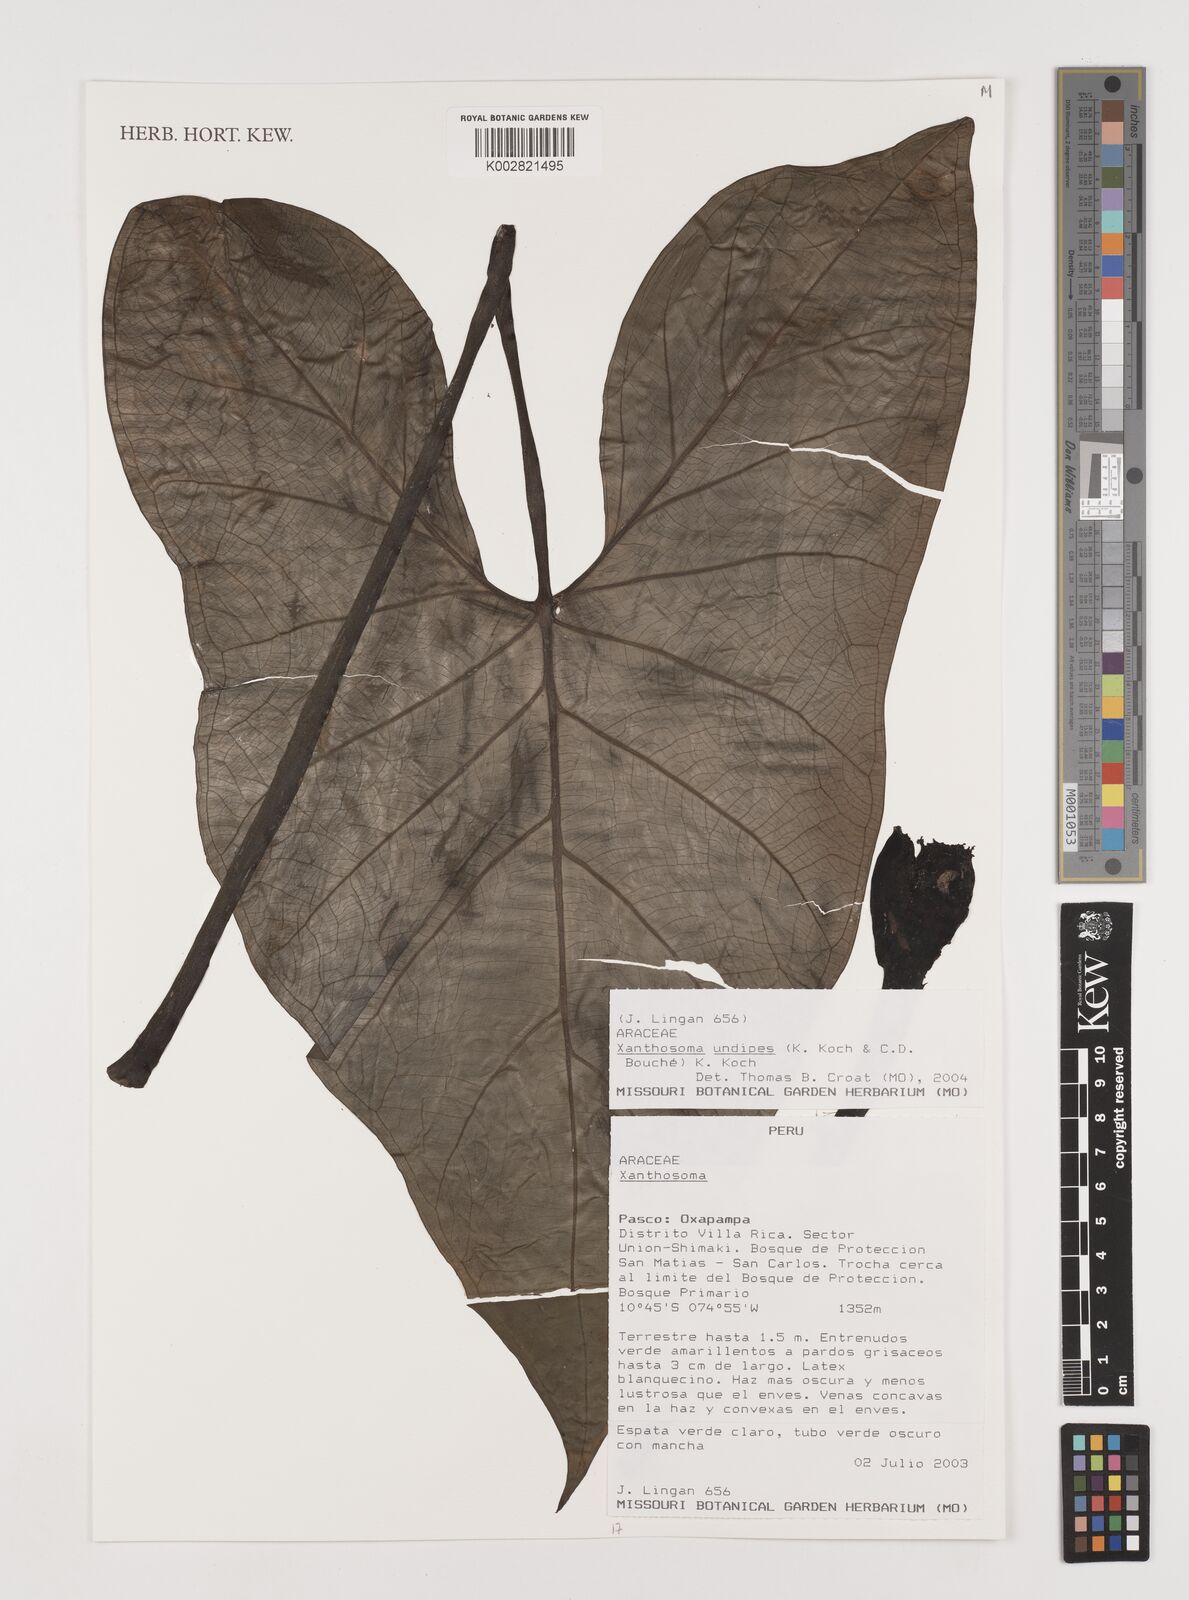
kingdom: Plantae
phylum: Tracheophyta
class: Liliopsida
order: Alismatales
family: Araceae
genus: Xanthosoma
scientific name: Xanthosoma undipes
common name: Tall elephant's ear
